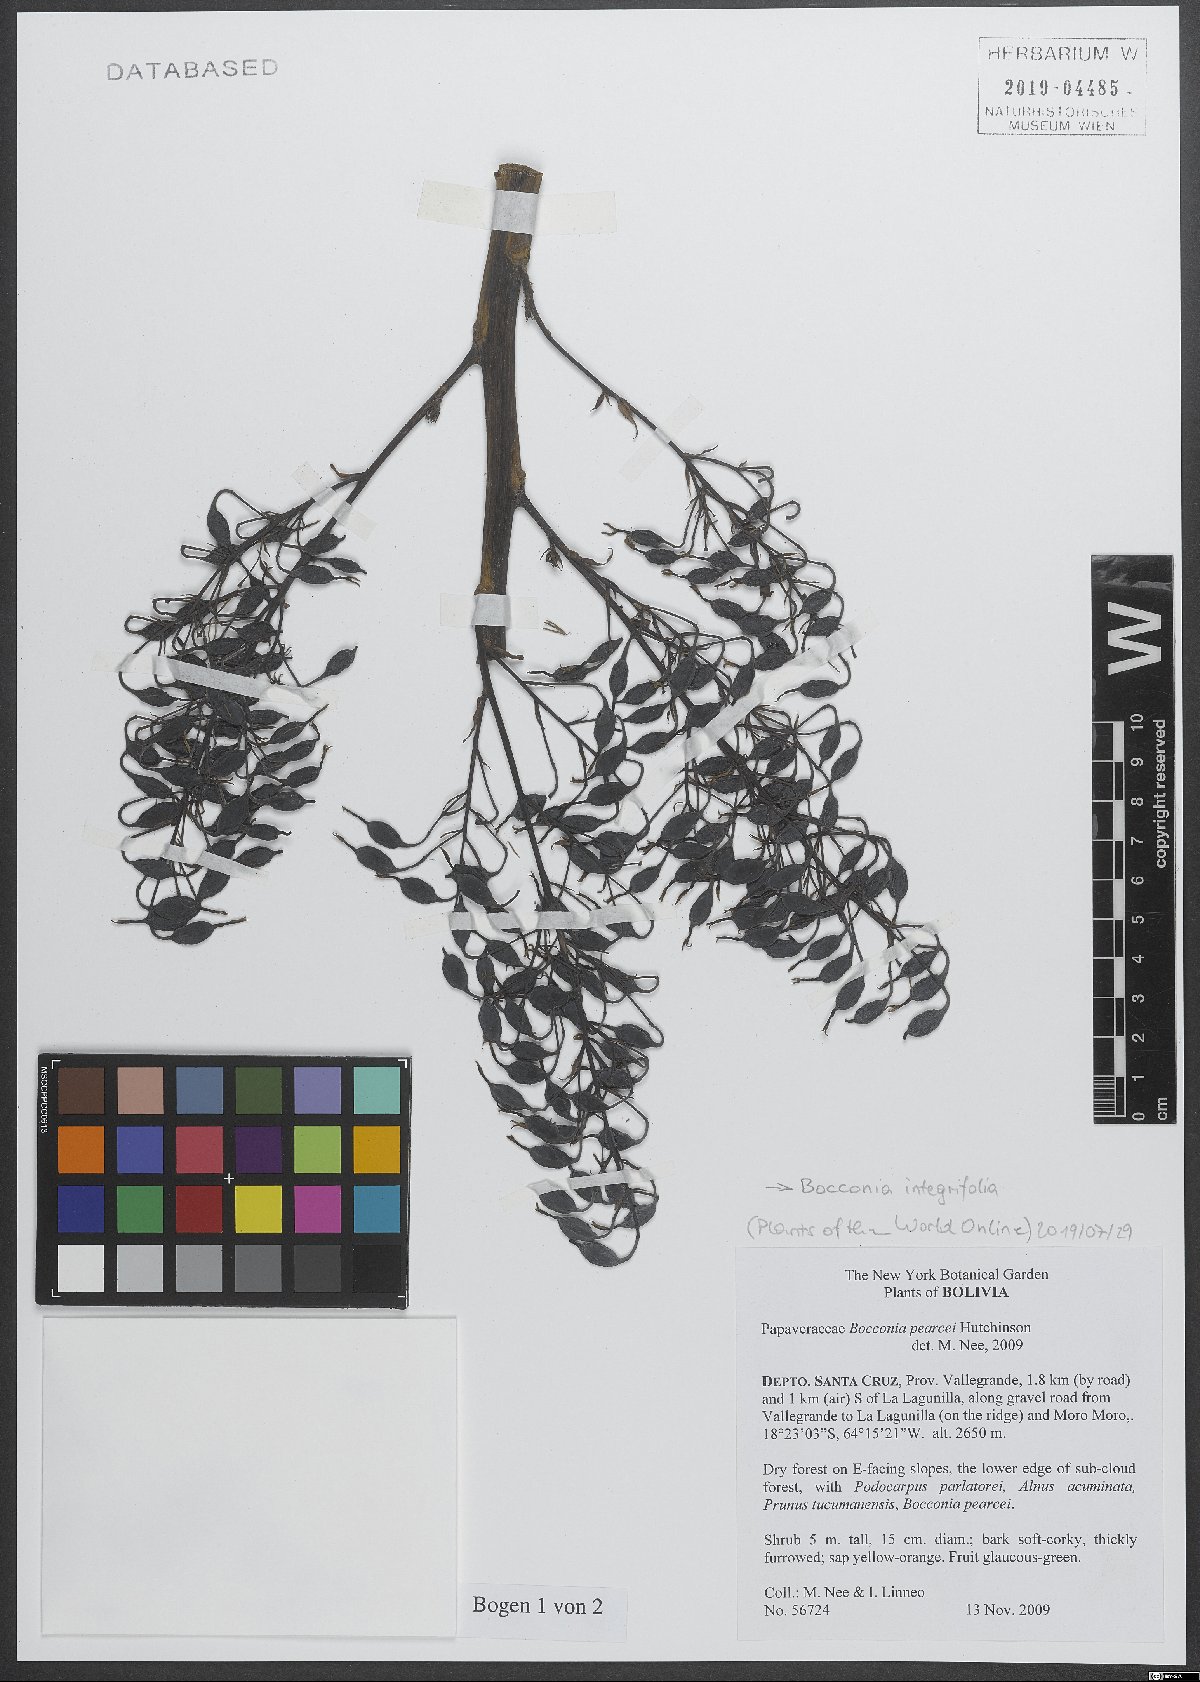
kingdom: Plantae
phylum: Tracheophyta
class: Magnoliopsida
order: Ranunculales
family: Papaveraceae
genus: Bocconia
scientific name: Bocconia integrifolia
